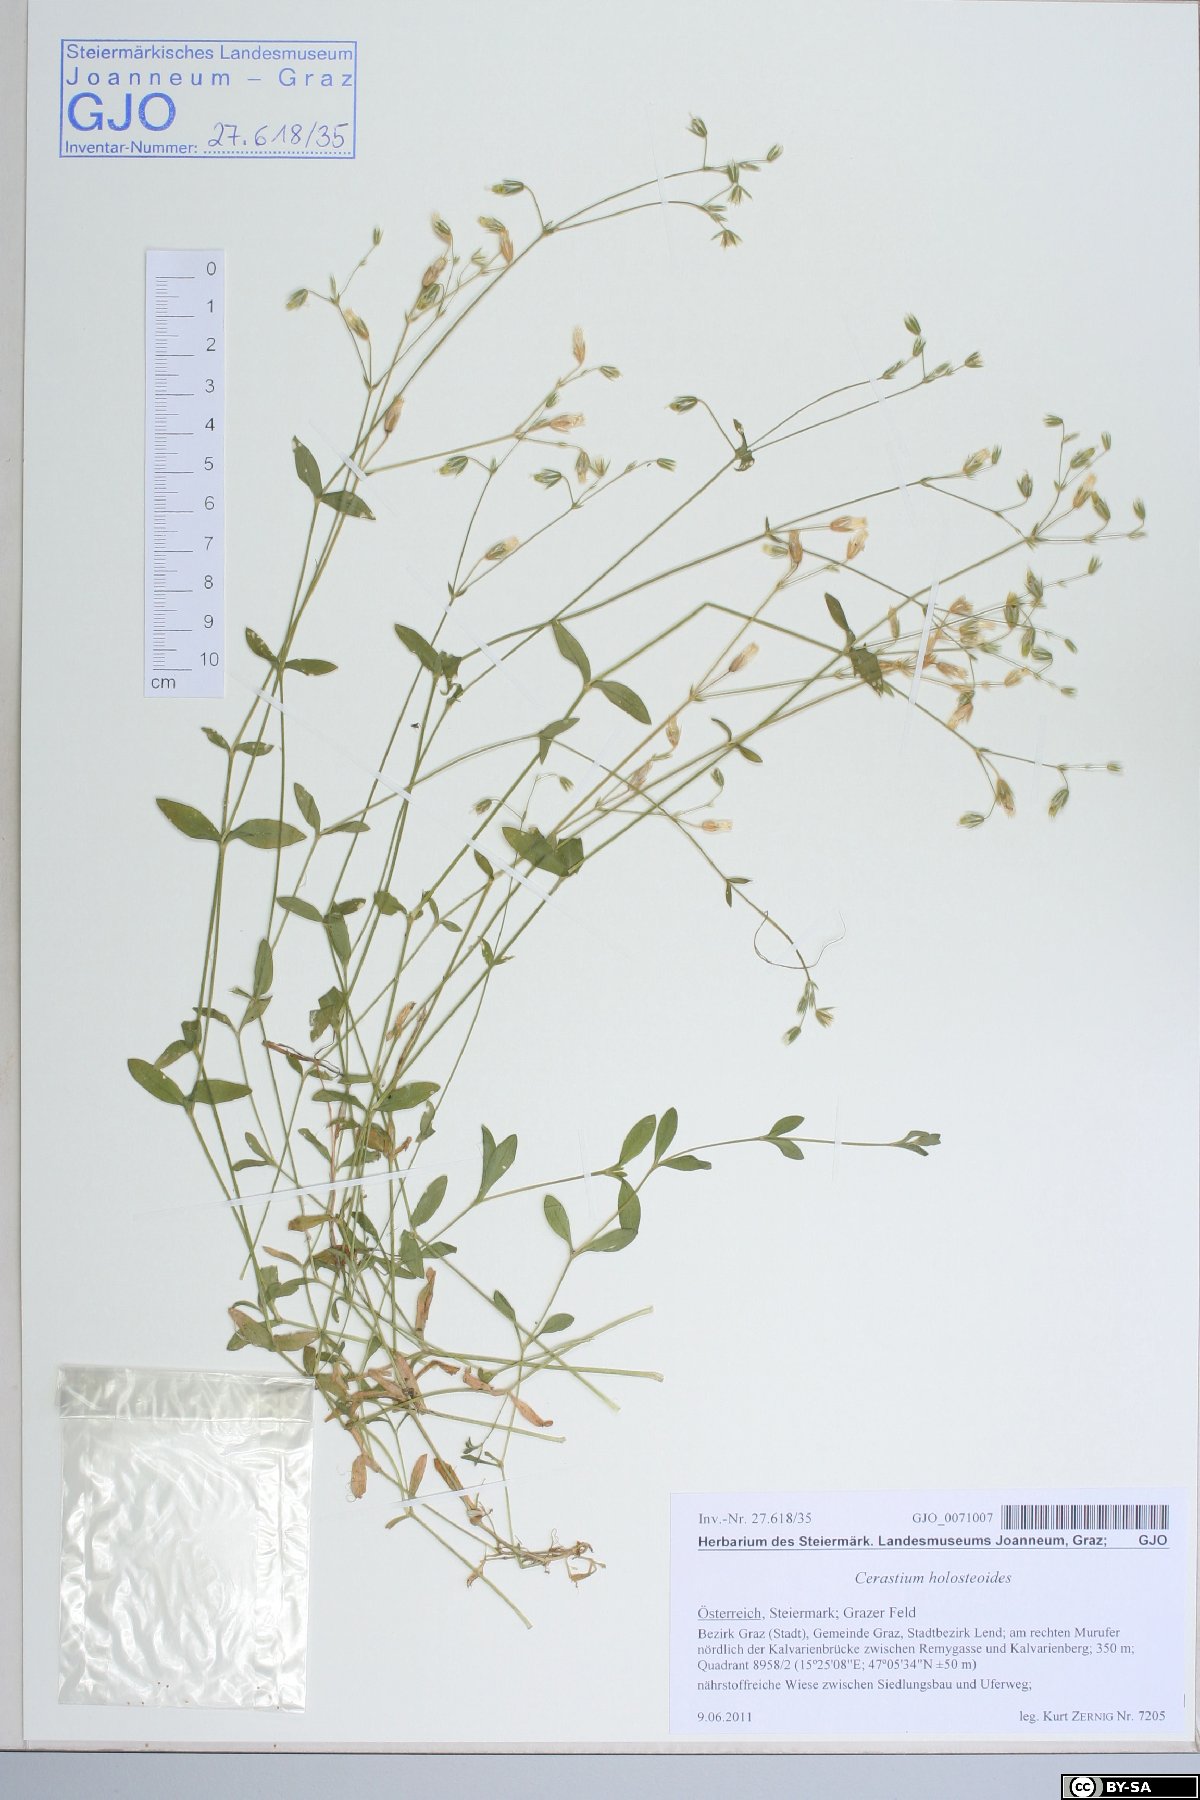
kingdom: Plantae
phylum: Tracheophyta
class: Magnoliopsida
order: Caryophyllales
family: Caryophyllaceae
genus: Cerastium
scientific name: Cerastium holosteoides
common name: Big chickweed
